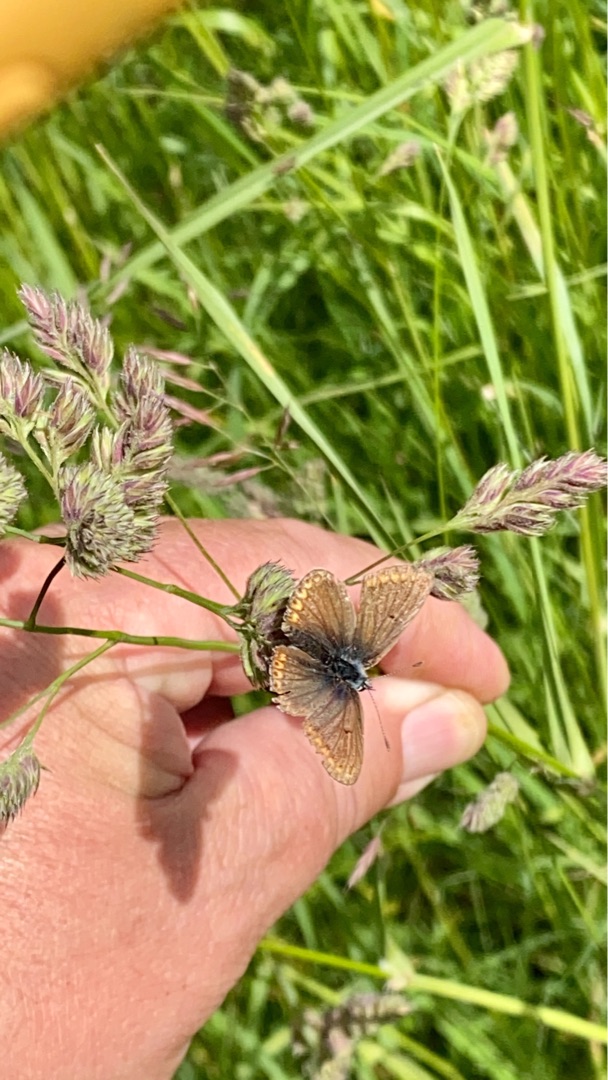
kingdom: Animalia
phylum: Arthropoda
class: Insecta
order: Lepidoptera
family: Lycaenidae
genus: Aricia
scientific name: Aricia agestis
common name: Rødplettet blåfugl
